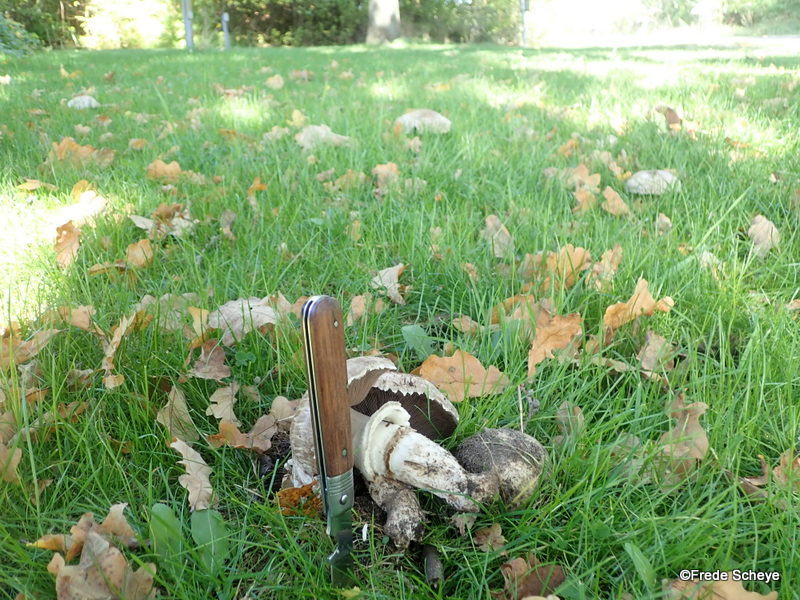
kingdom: Fungi
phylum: Basidiomycota
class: Agaricomycetes
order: Agaricales
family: Agaricaceae
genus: Agaricus
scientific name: Agaricus subperonatus
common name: knippe-champignon
